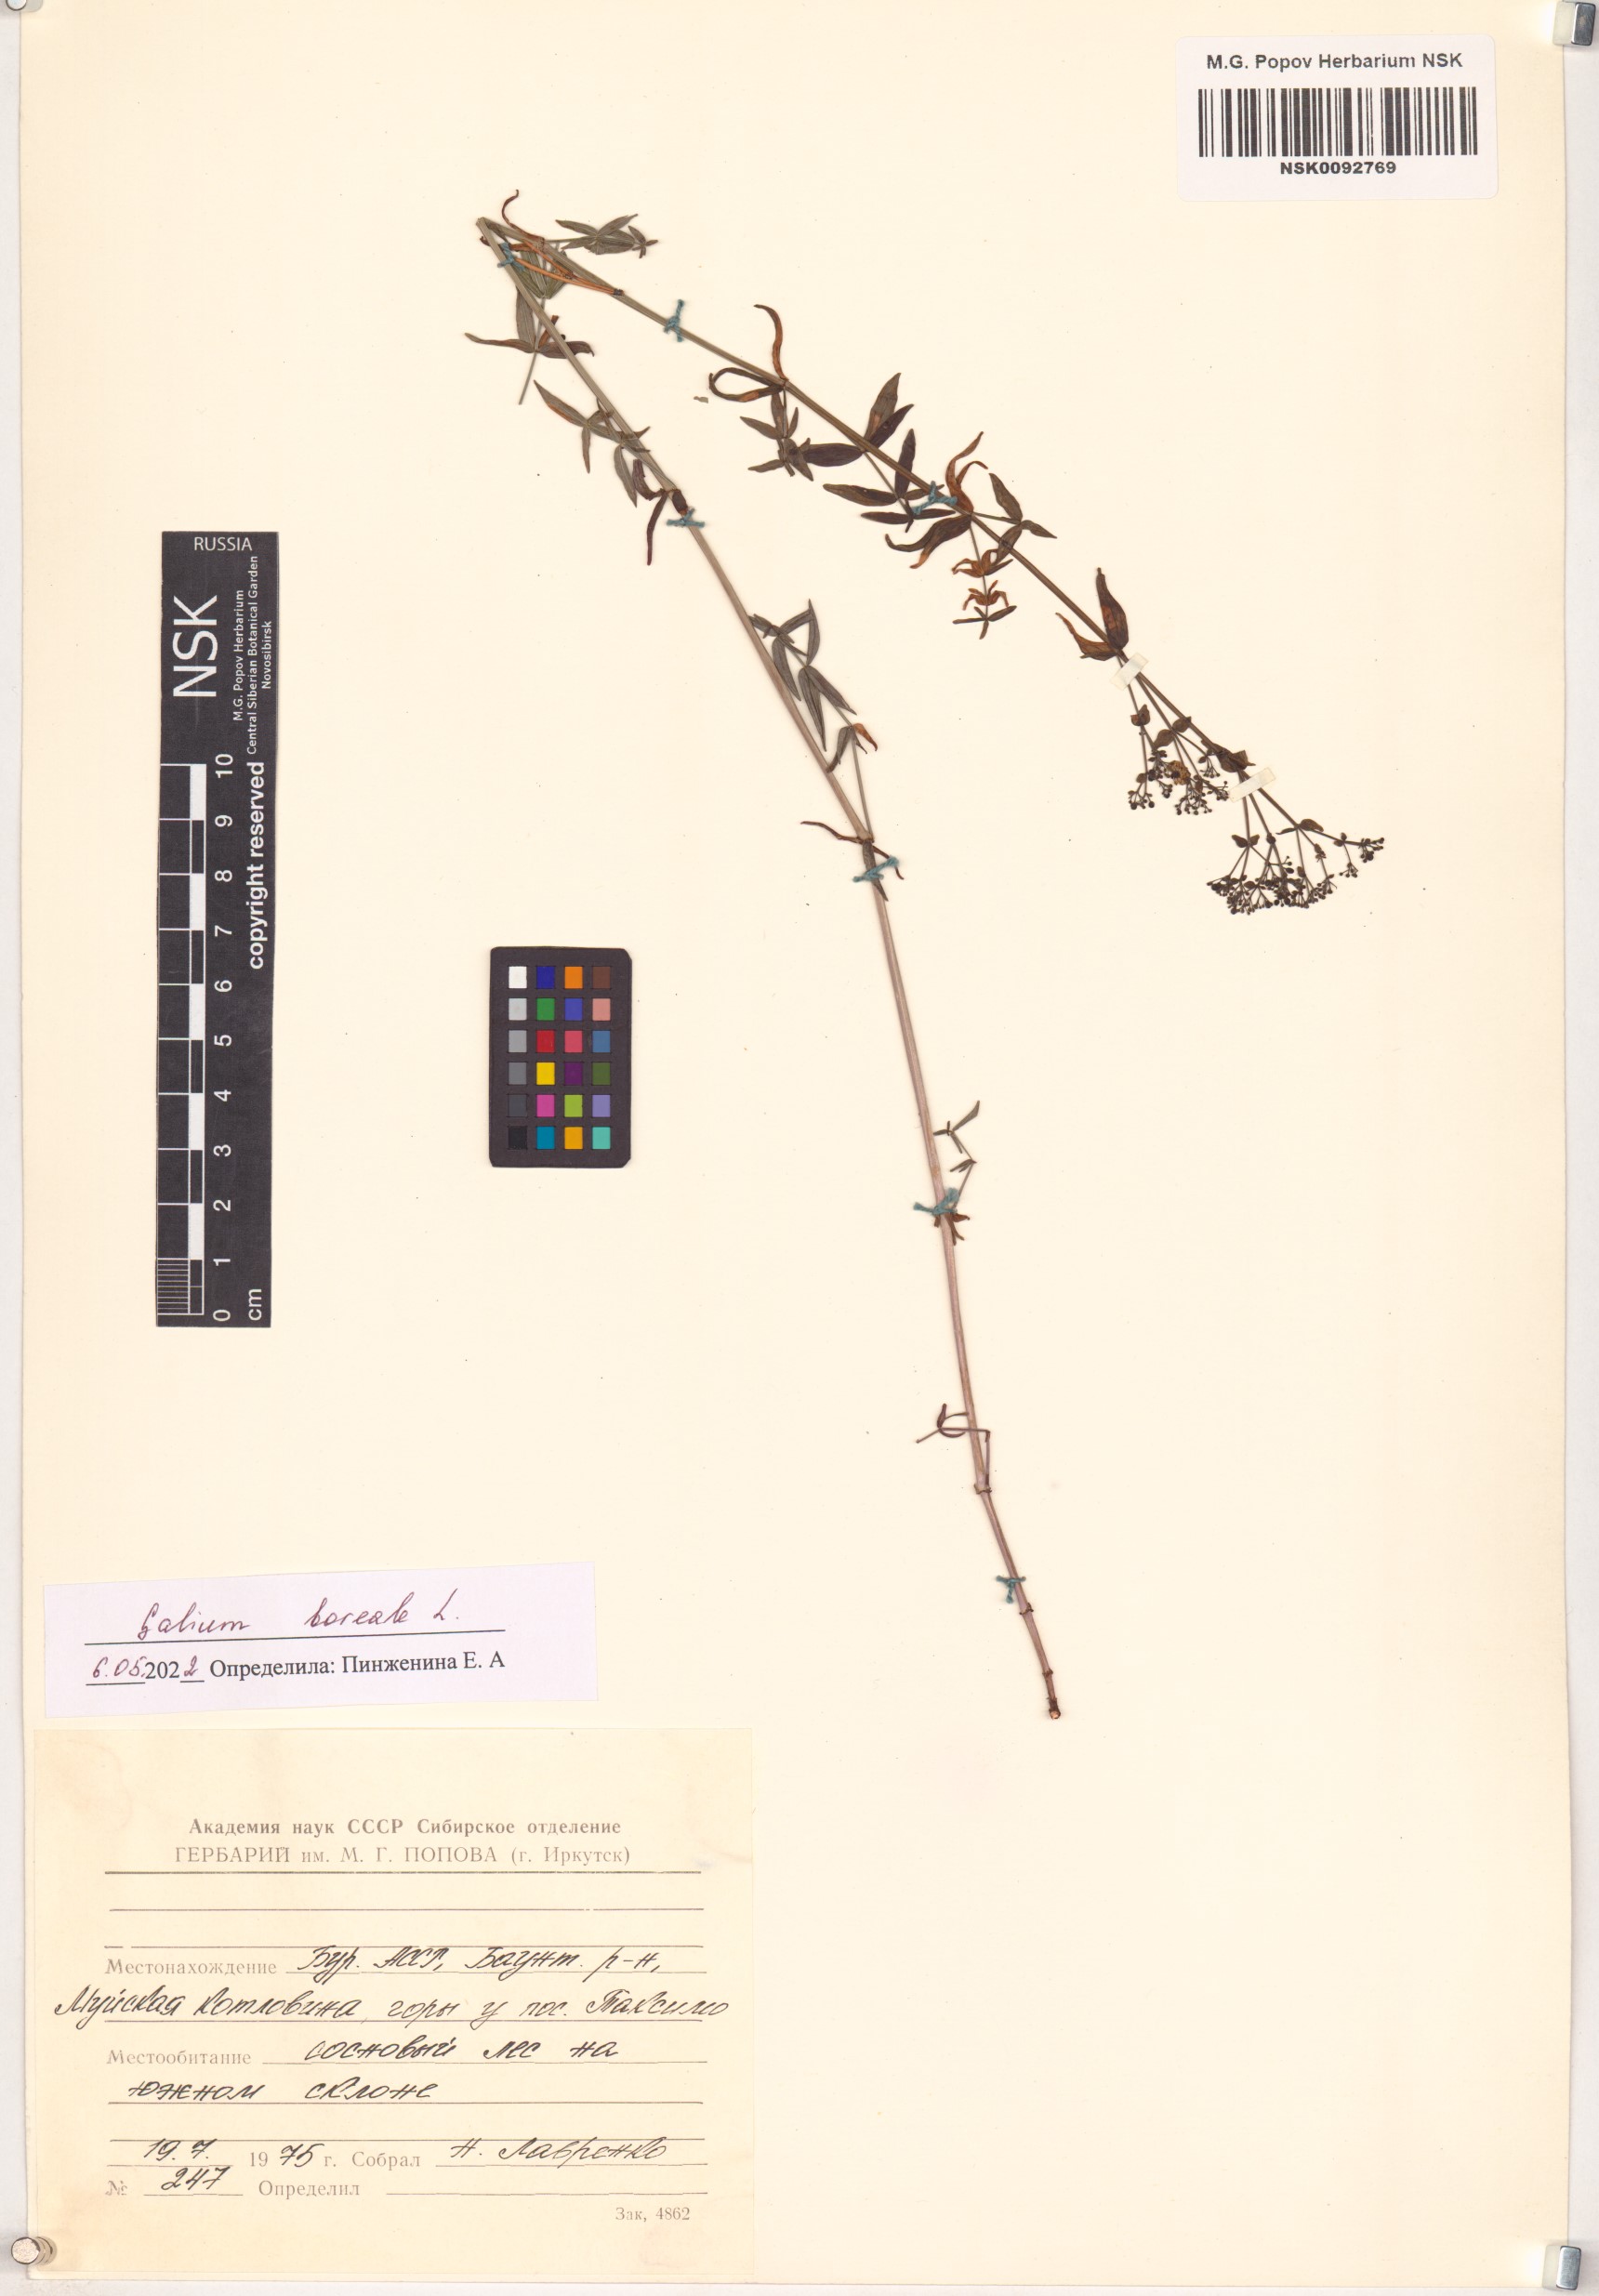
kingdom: Plantae
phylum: Tracheophyta
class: Magnoliopsida
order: Gentianales
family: Rubiaceae
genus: Galium
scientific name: Galium boreale
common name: Northern bedstraw
